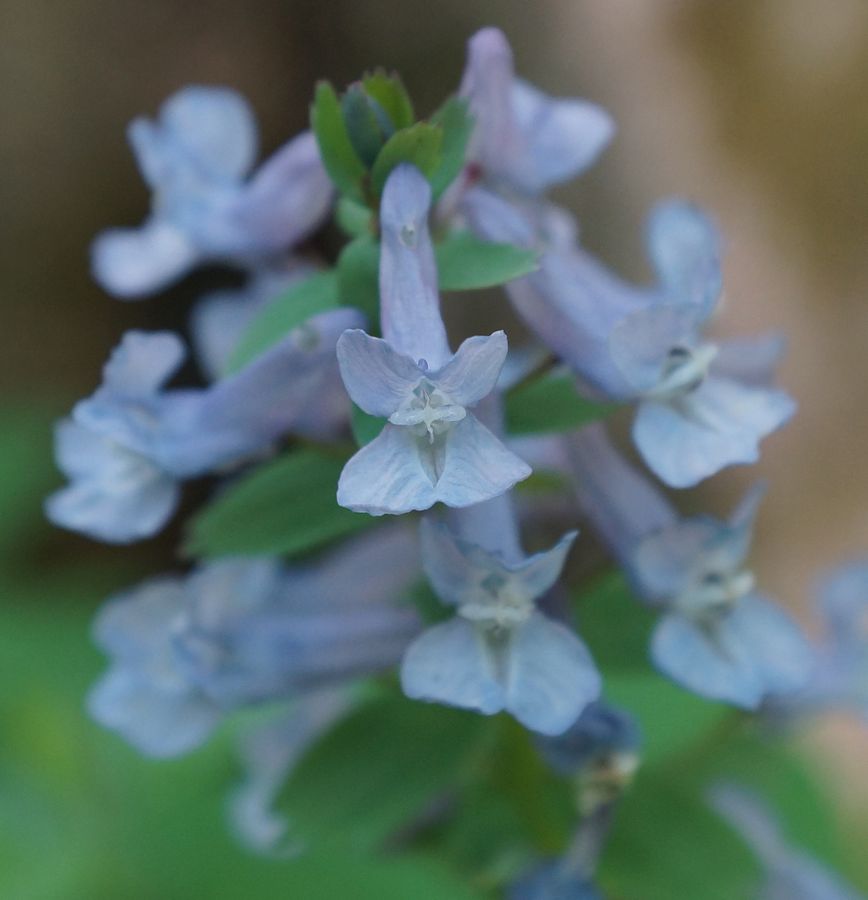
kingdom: Plantae
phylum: Tracheophyta
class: Magnoliopsida
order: Ranunculales
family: Papaveraceae
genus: Corydalis
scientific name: Corydalis solida
